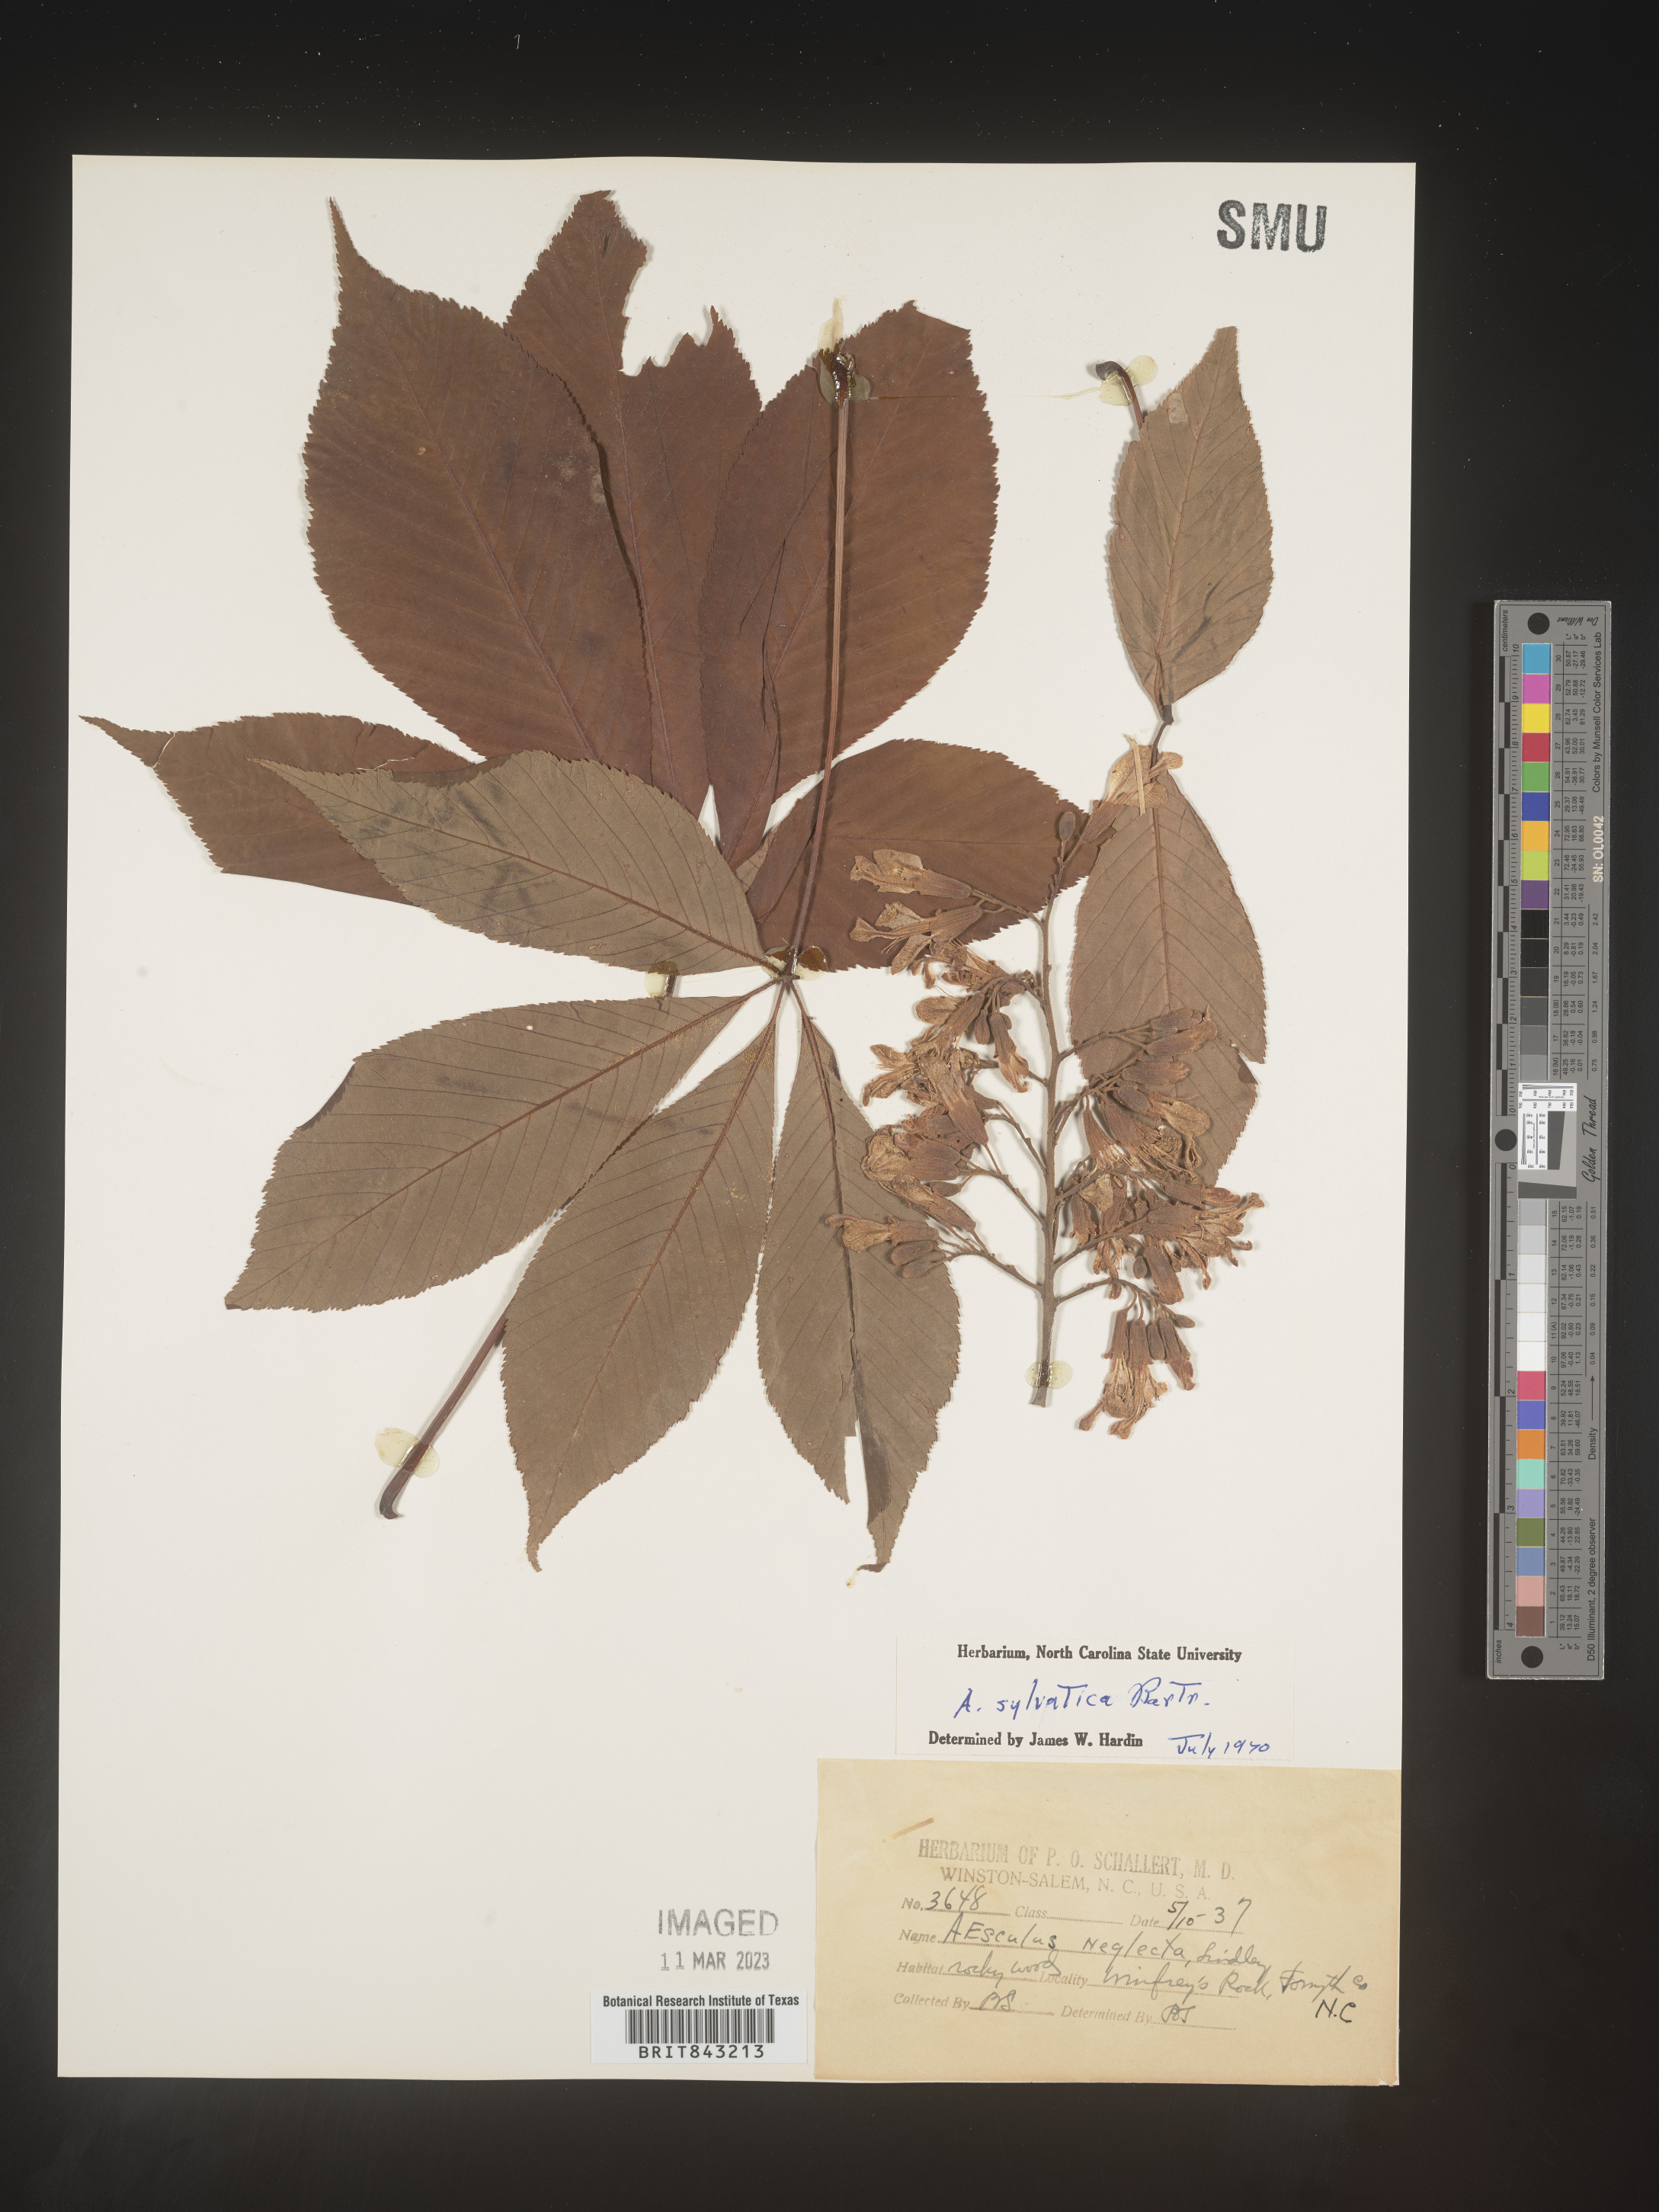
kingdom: Plantae
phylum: Tracheophyta
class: Magnoliopsida
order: Sapindales
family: Sapindaceae
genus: Aesculus
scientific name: Aesculus
